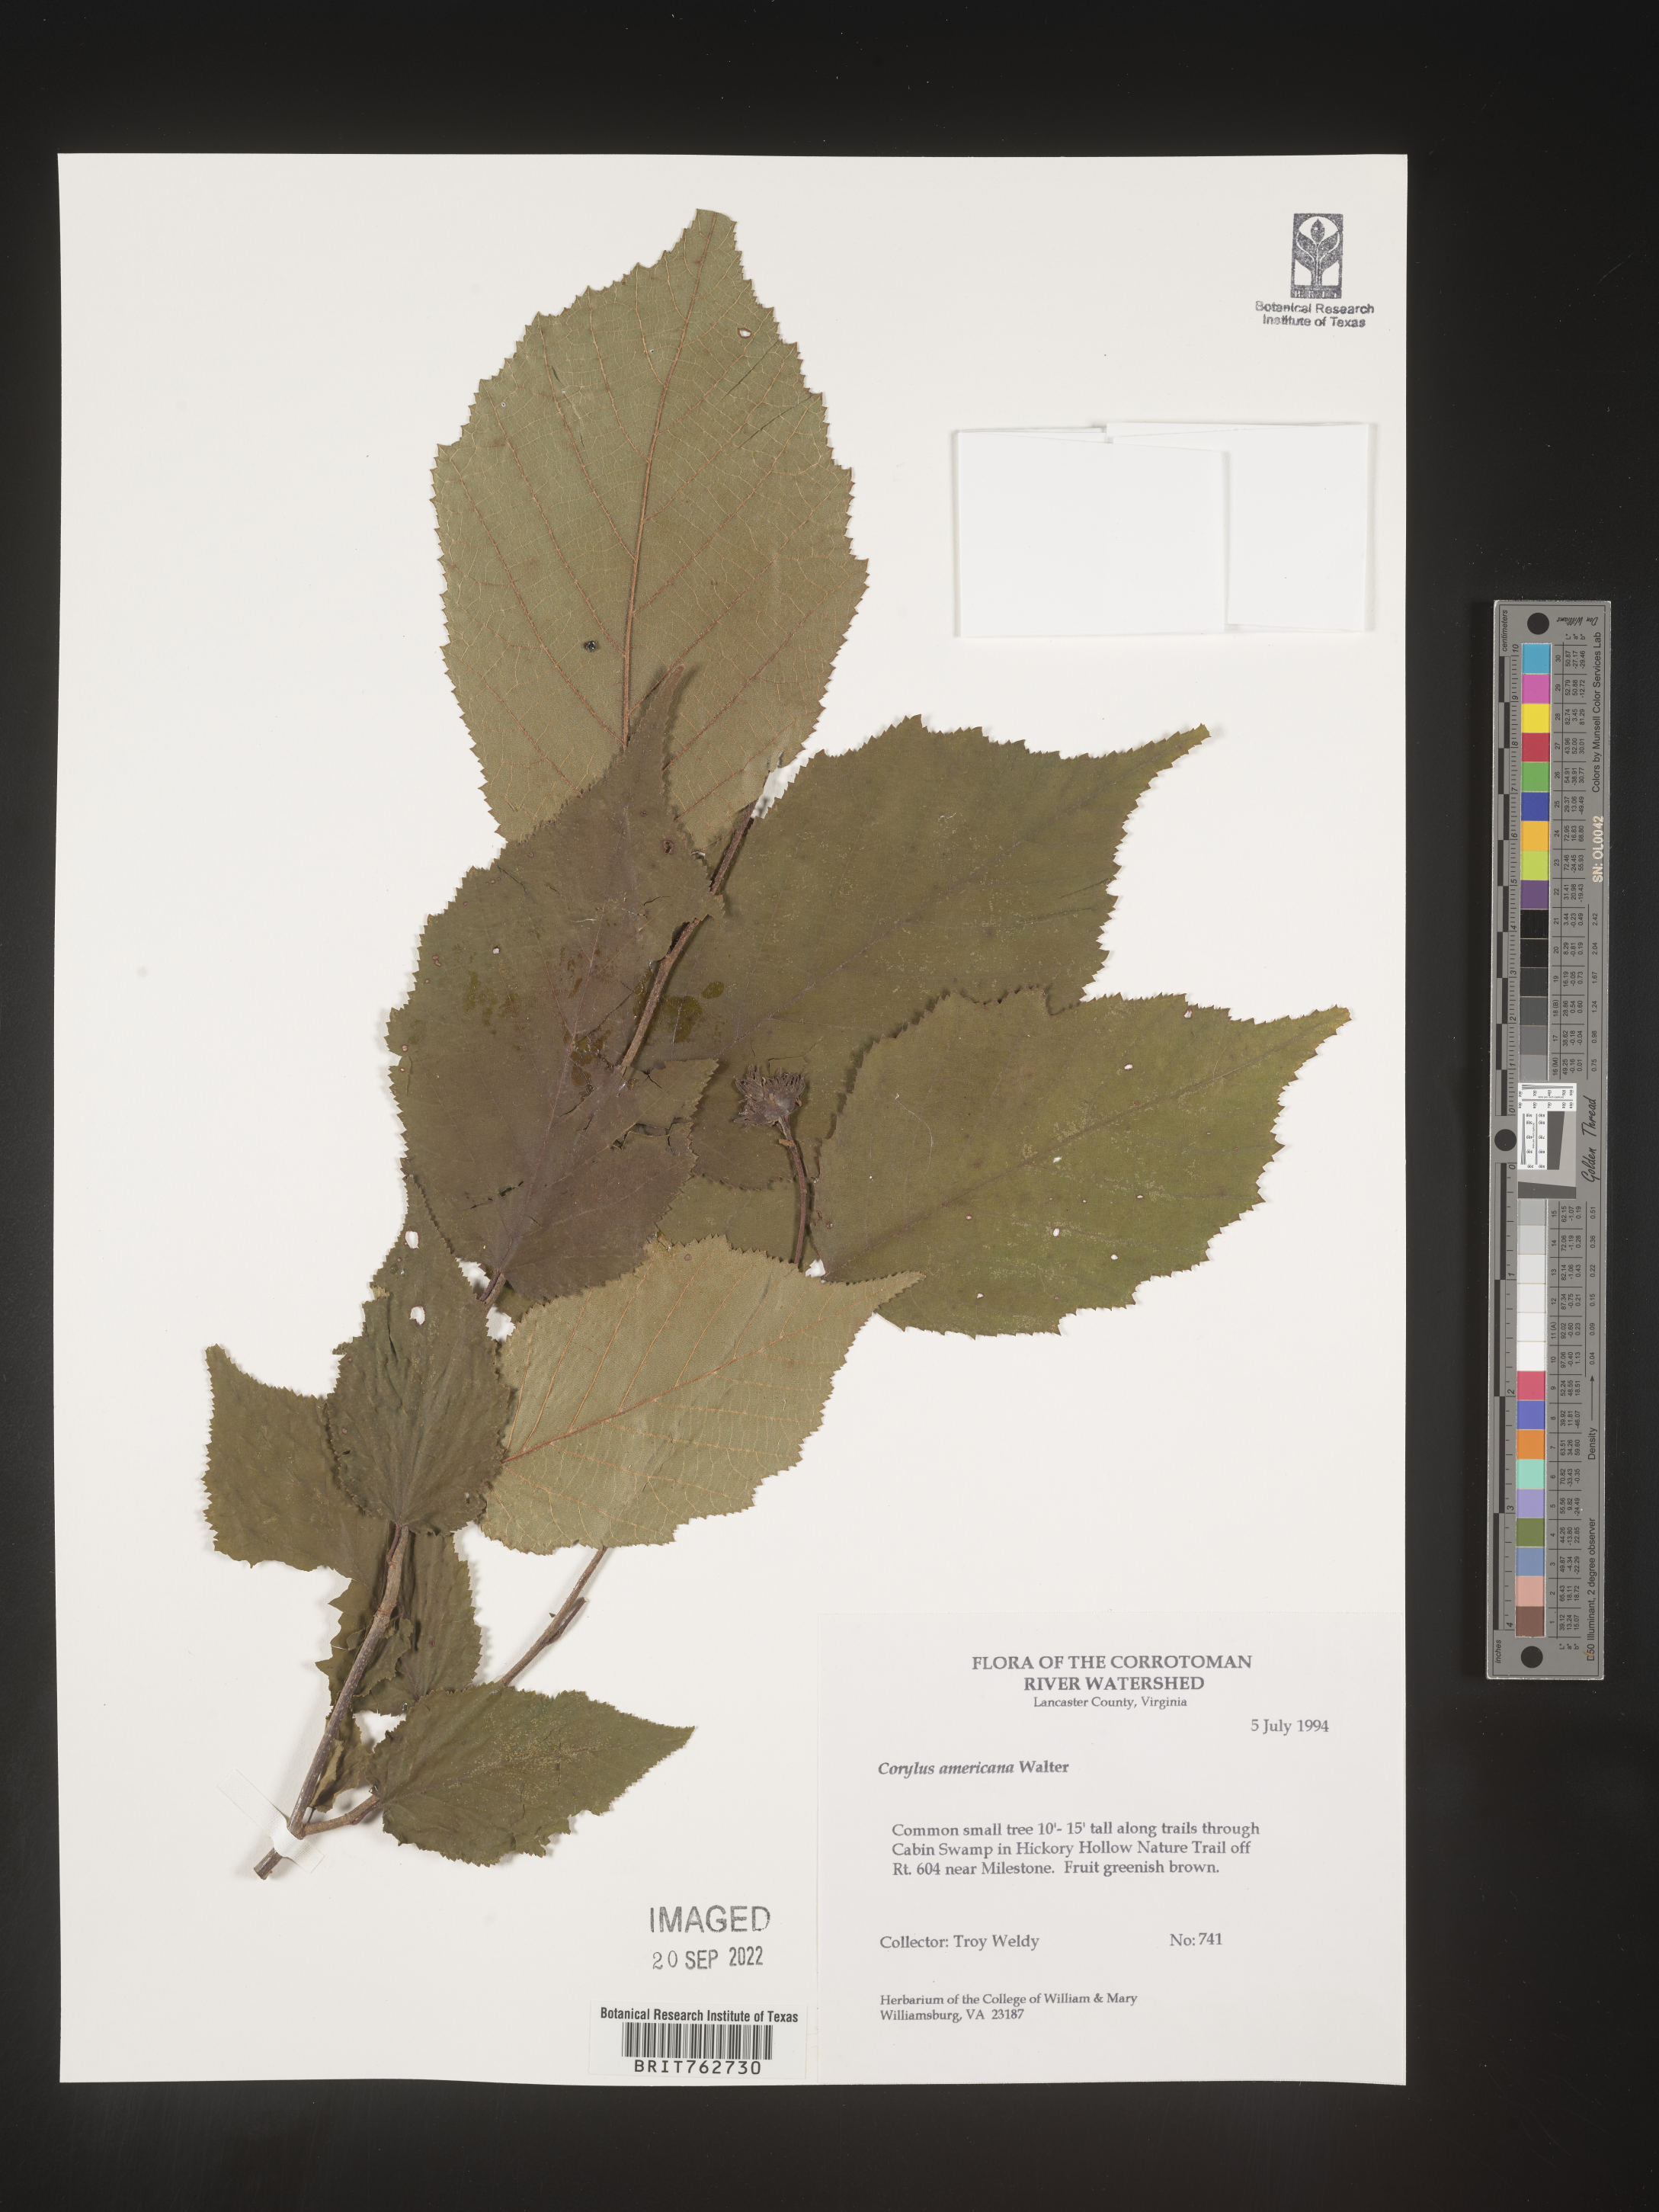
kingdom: Plantae
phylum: Tracheophyta
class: Magnoliopsida
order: Fagales
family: Betulaceae
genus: Corylus
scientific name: Corylus americana
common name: American hazel
